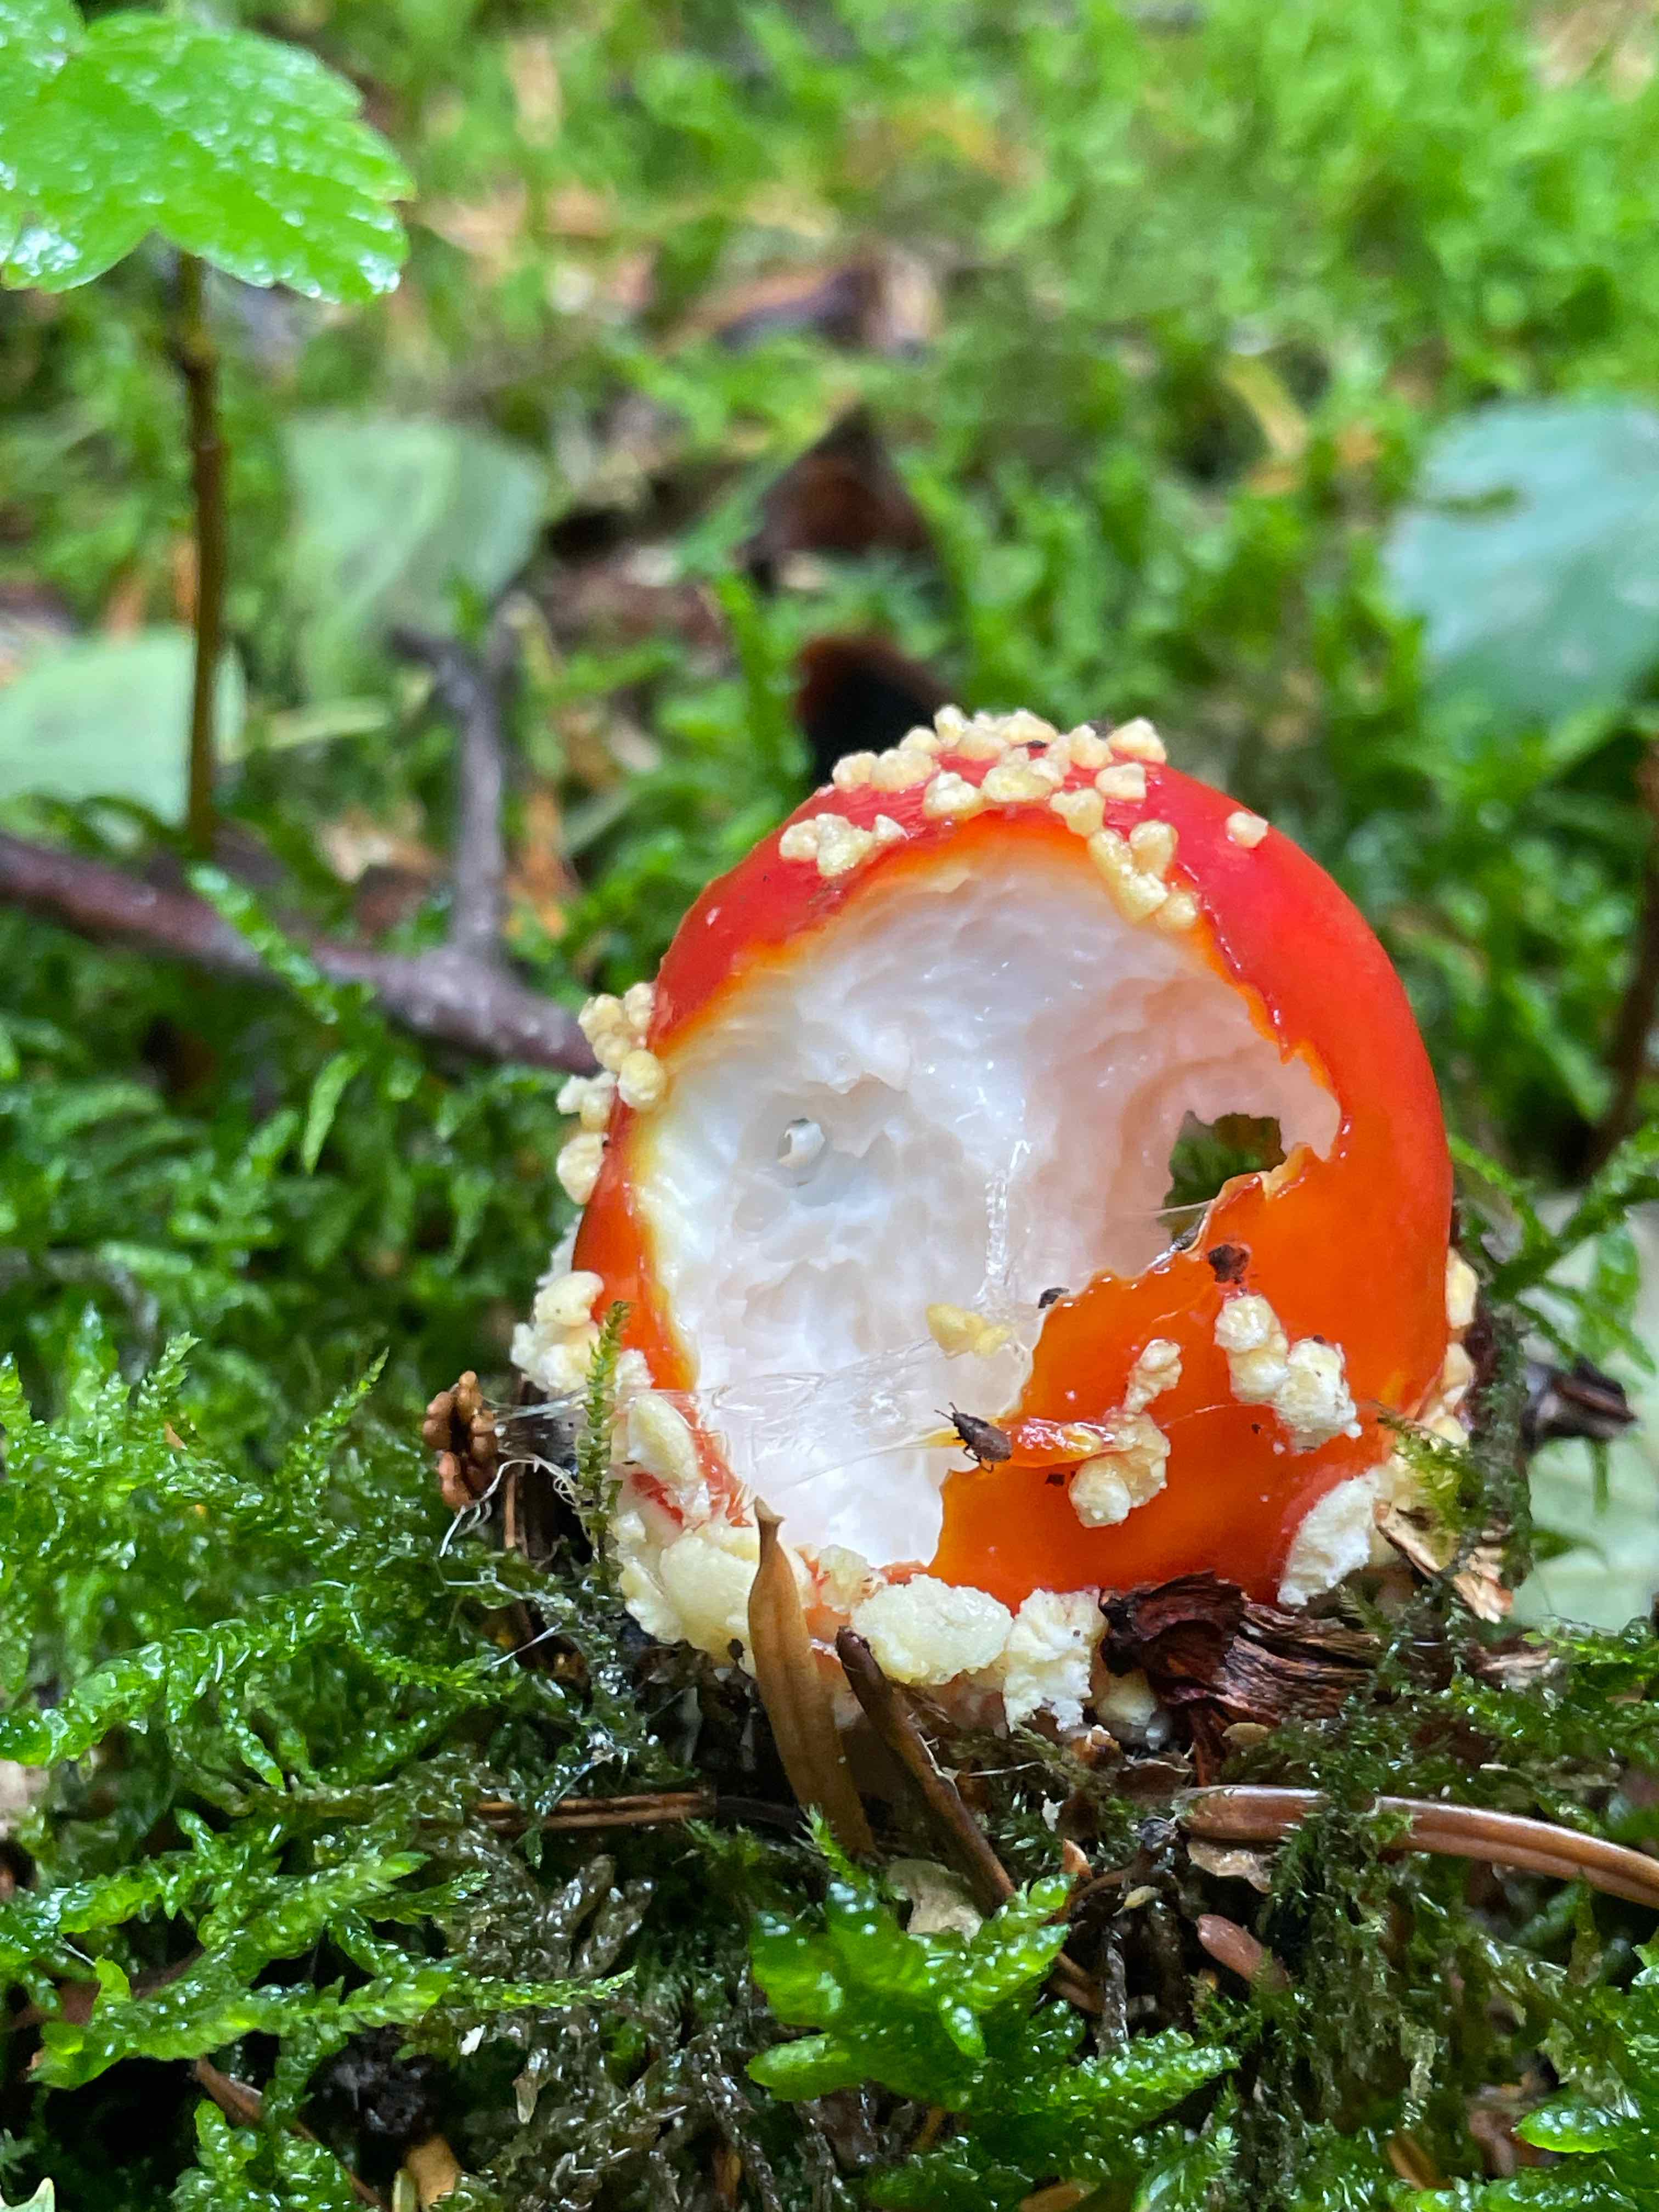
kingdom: Fungi
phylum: Basidiomycota
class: Agaricomycetes
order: Agaricales
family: Amanitaceae
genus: Amanita
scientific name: Amanita muscaria
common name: rød fluesvamp
